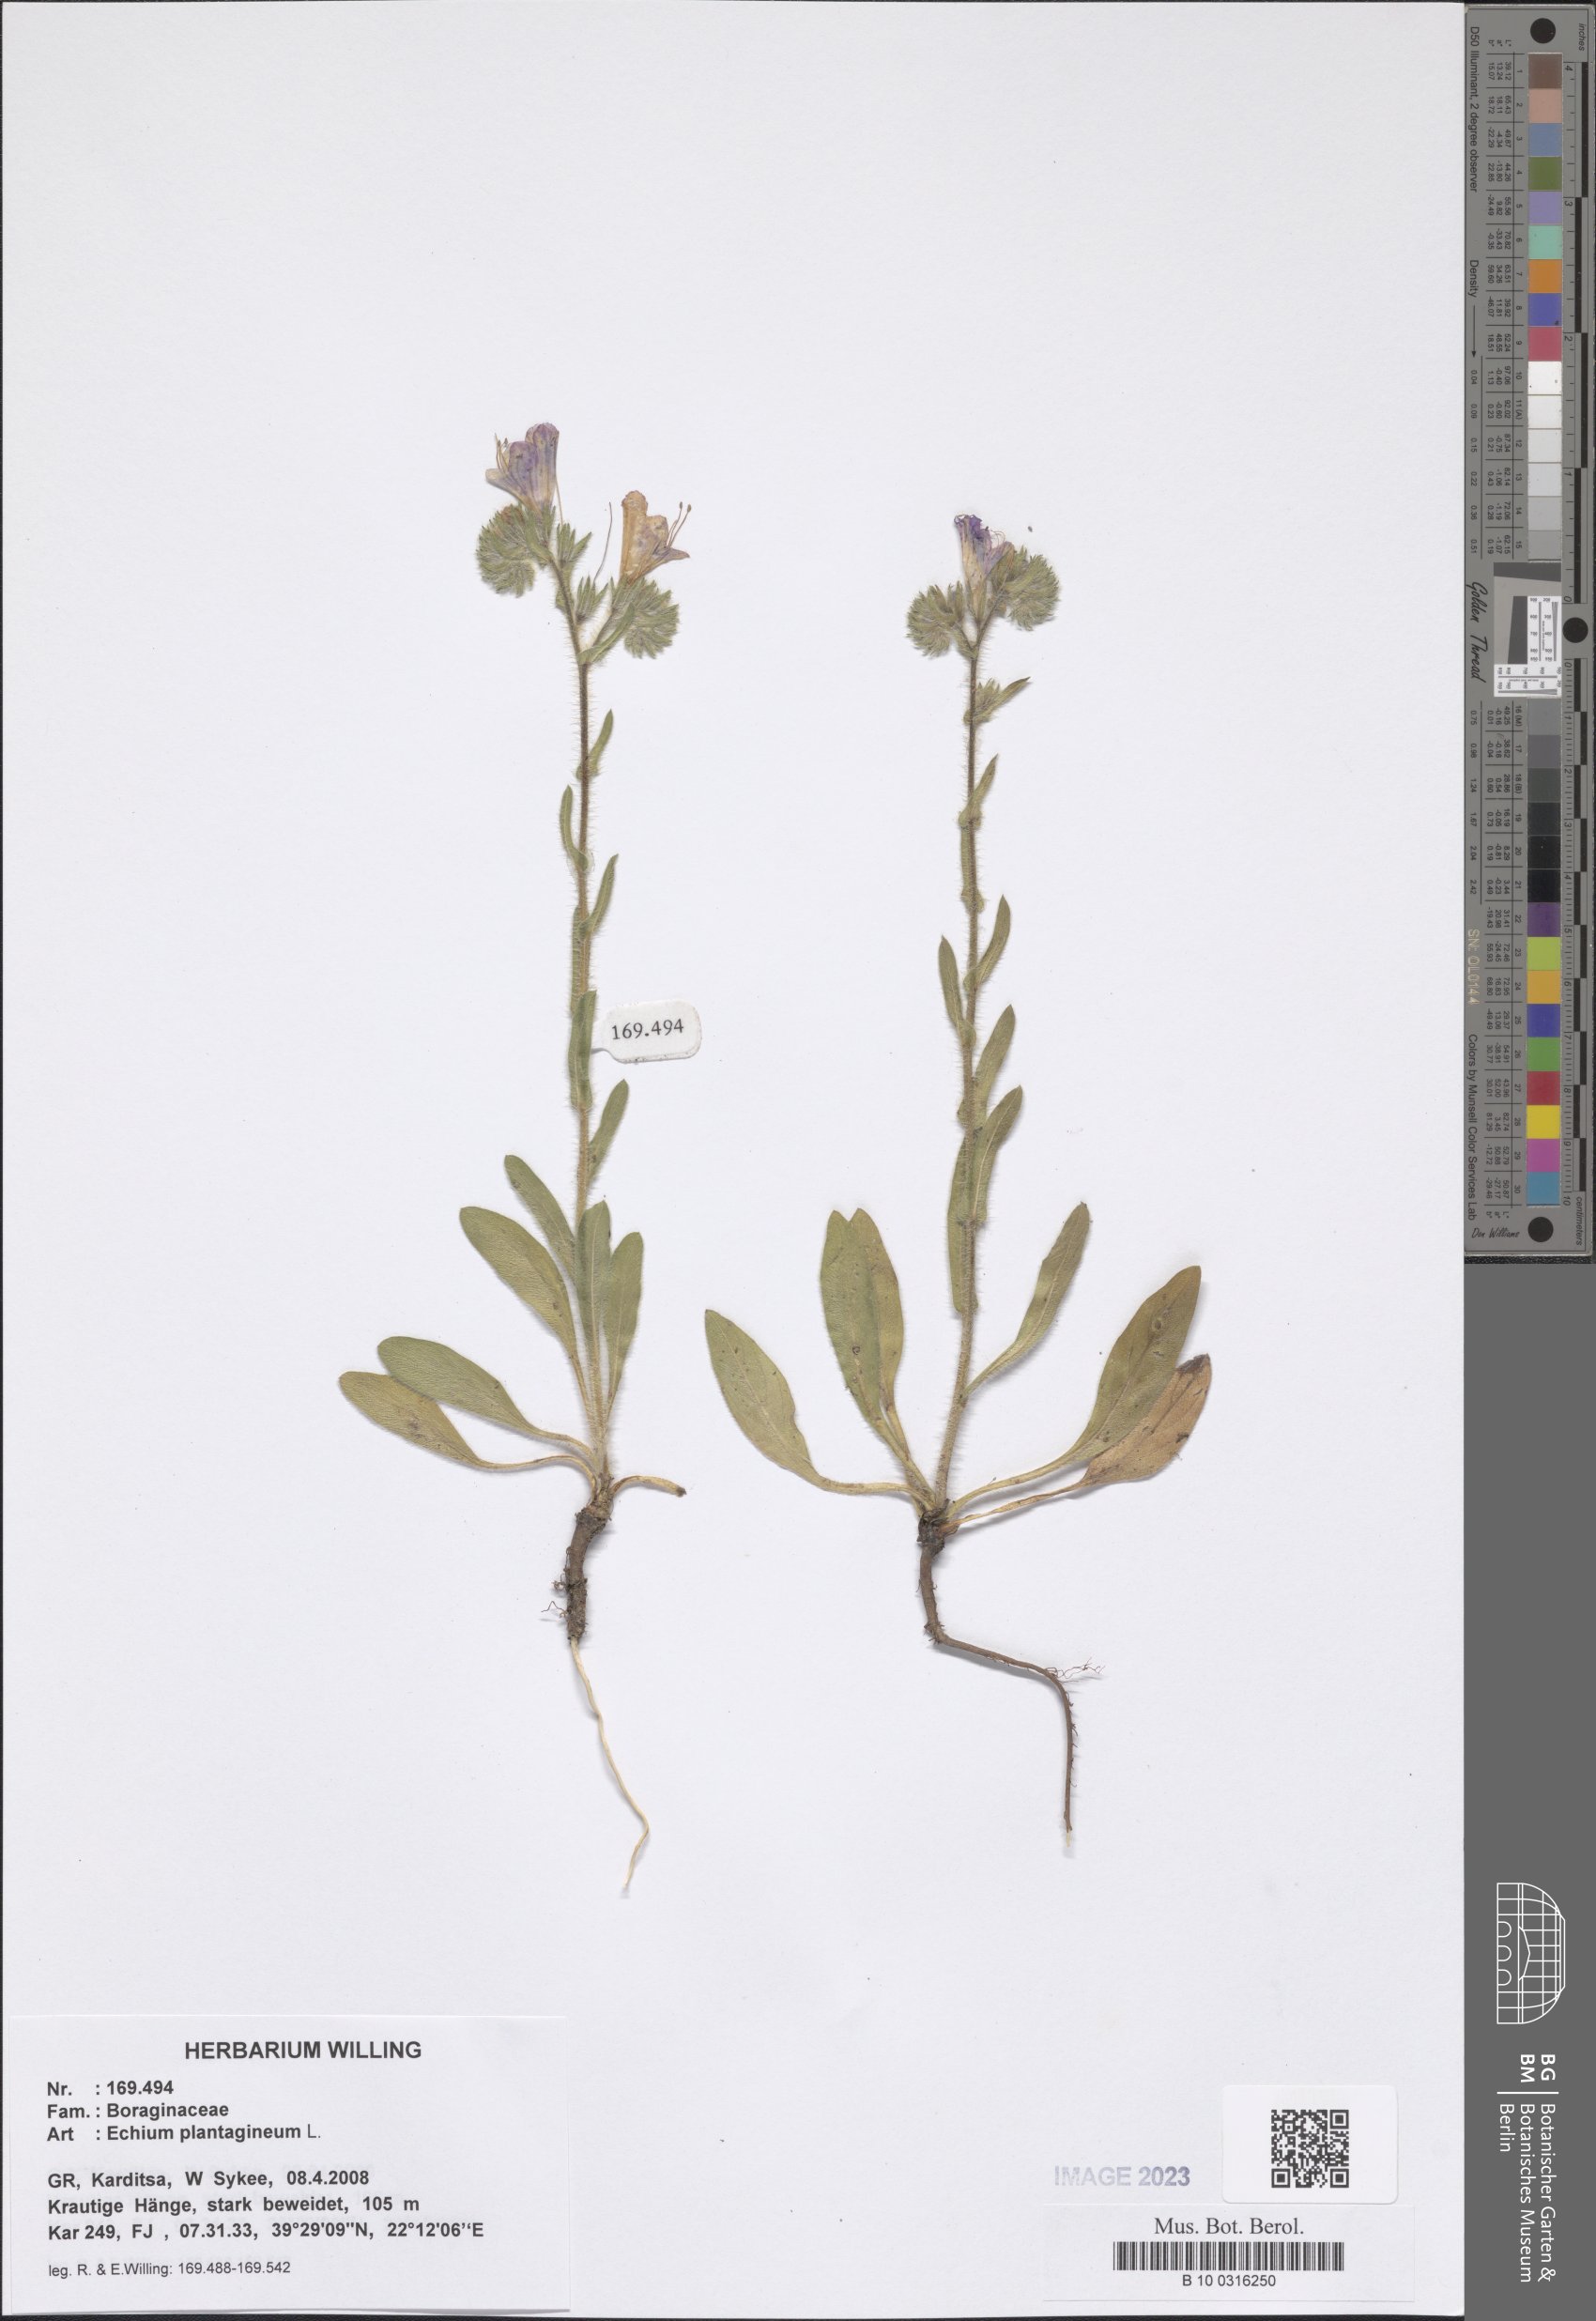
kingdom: Plantae
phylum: Tracheophyta
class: Magnoliopsida
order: Boraginales
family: Boraginaceae
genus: Echium
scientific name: Echium plantagineum
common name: Purple viper's-bugloss
